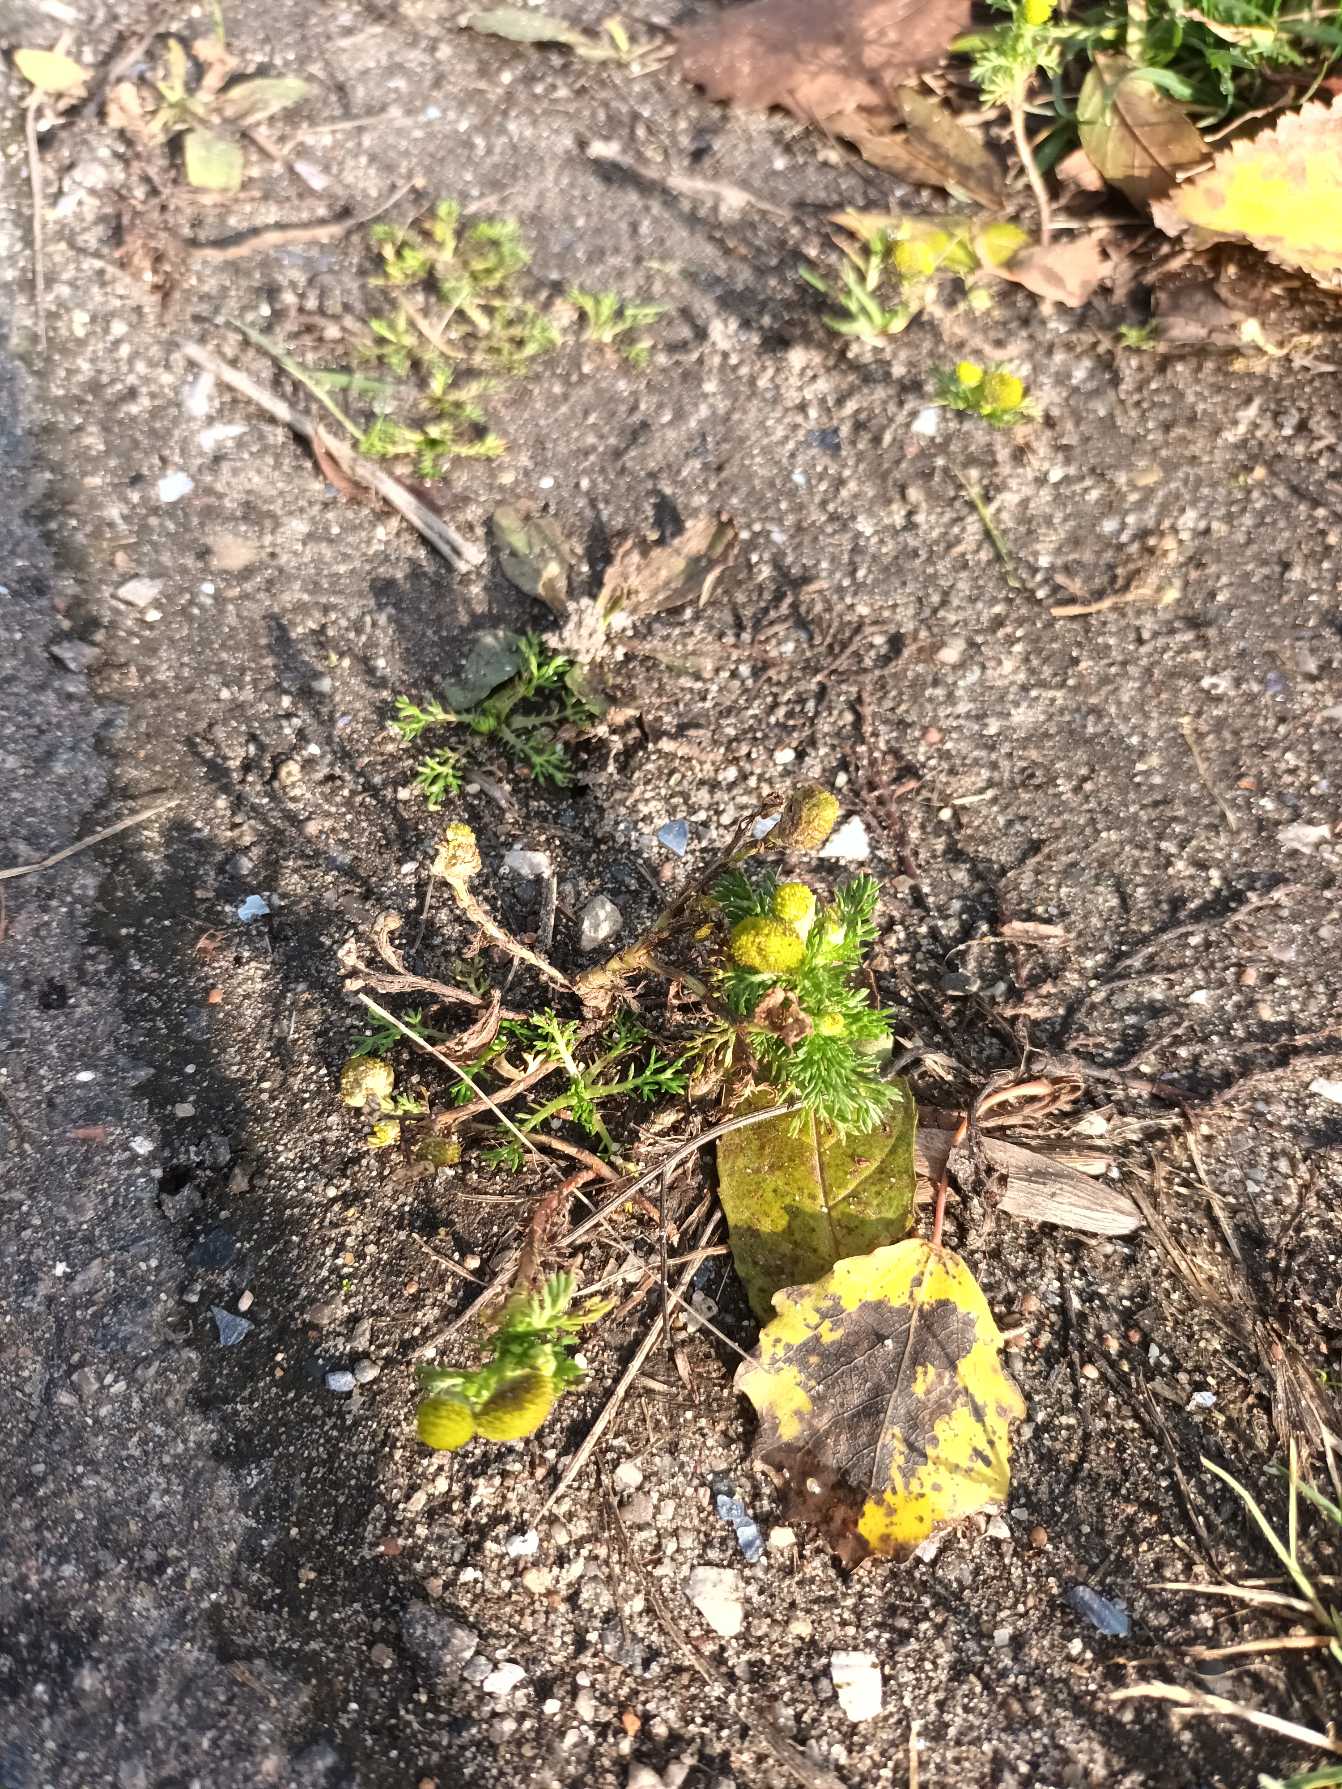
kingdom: Plantae
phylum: Tracheophyta
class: Magnoliopsida
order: Asterales
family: Asteraceae
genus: Matricaria
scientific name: Matricaria discoidea
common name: Skive-kamille
